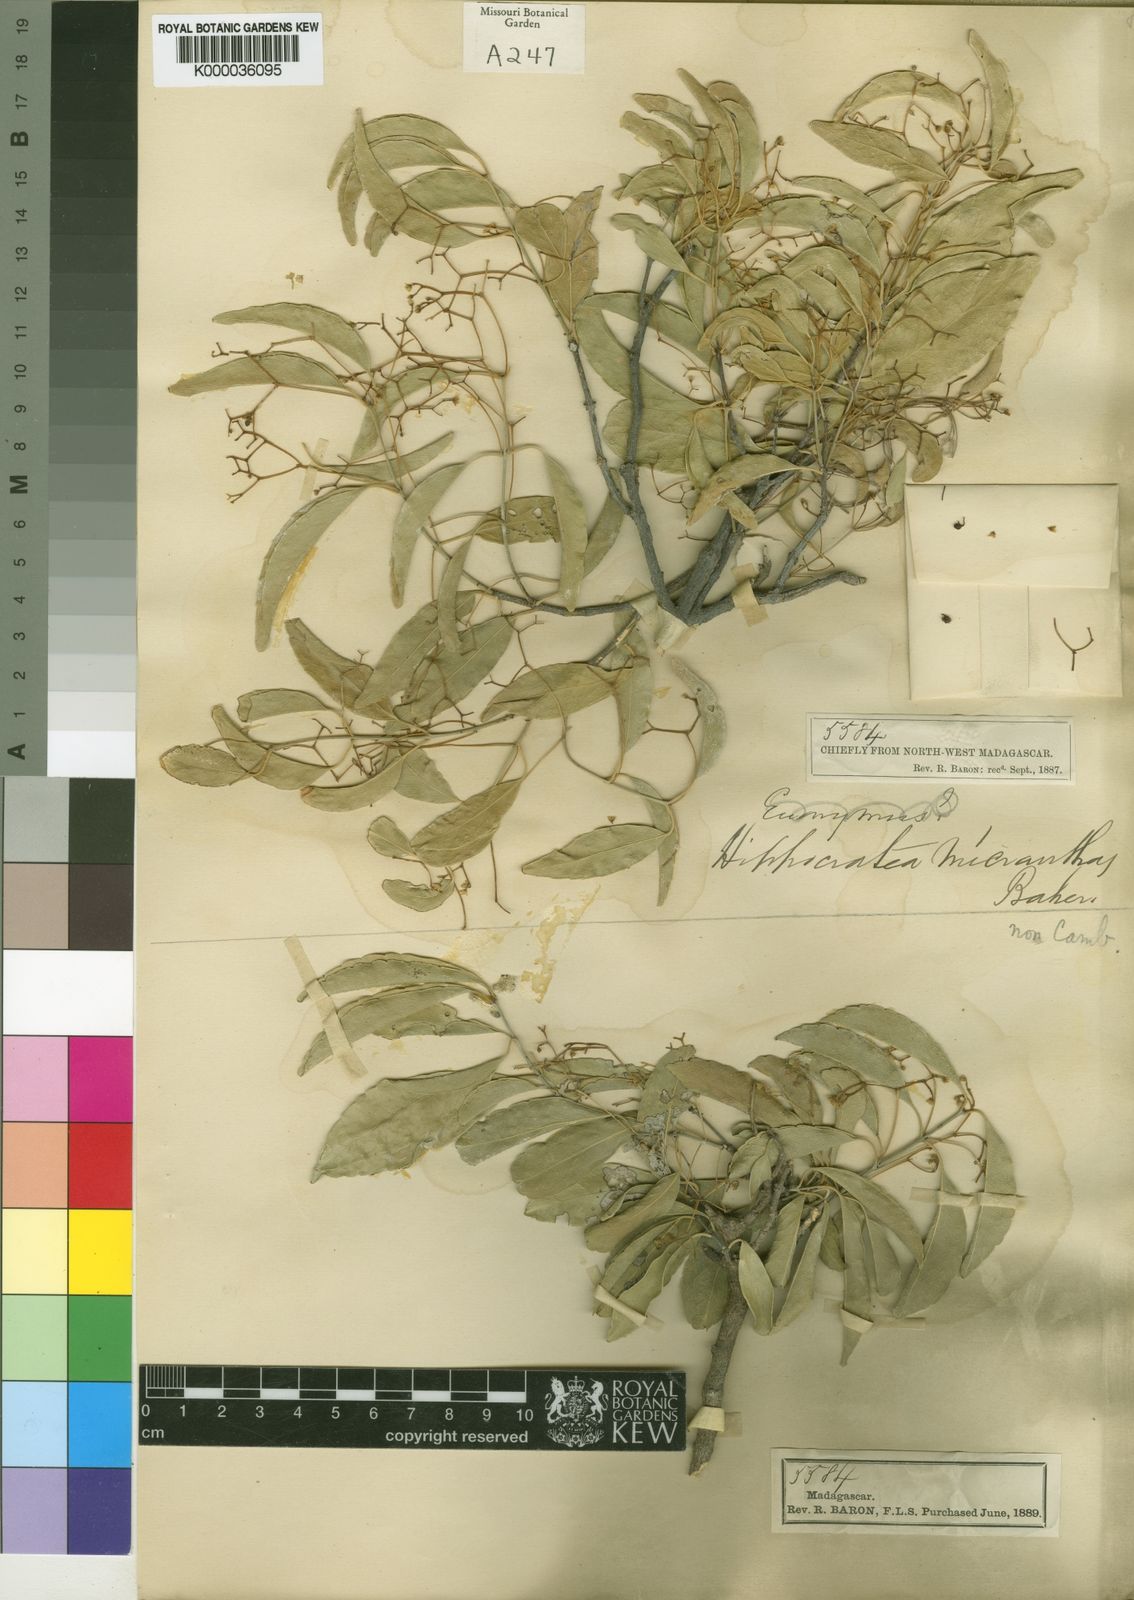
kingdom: Plantae
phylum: Tracheophyta
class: Magnoliopsida
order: Celastrales
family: Celastraceae
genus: Pristimera
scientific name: Pristimera malifolia
